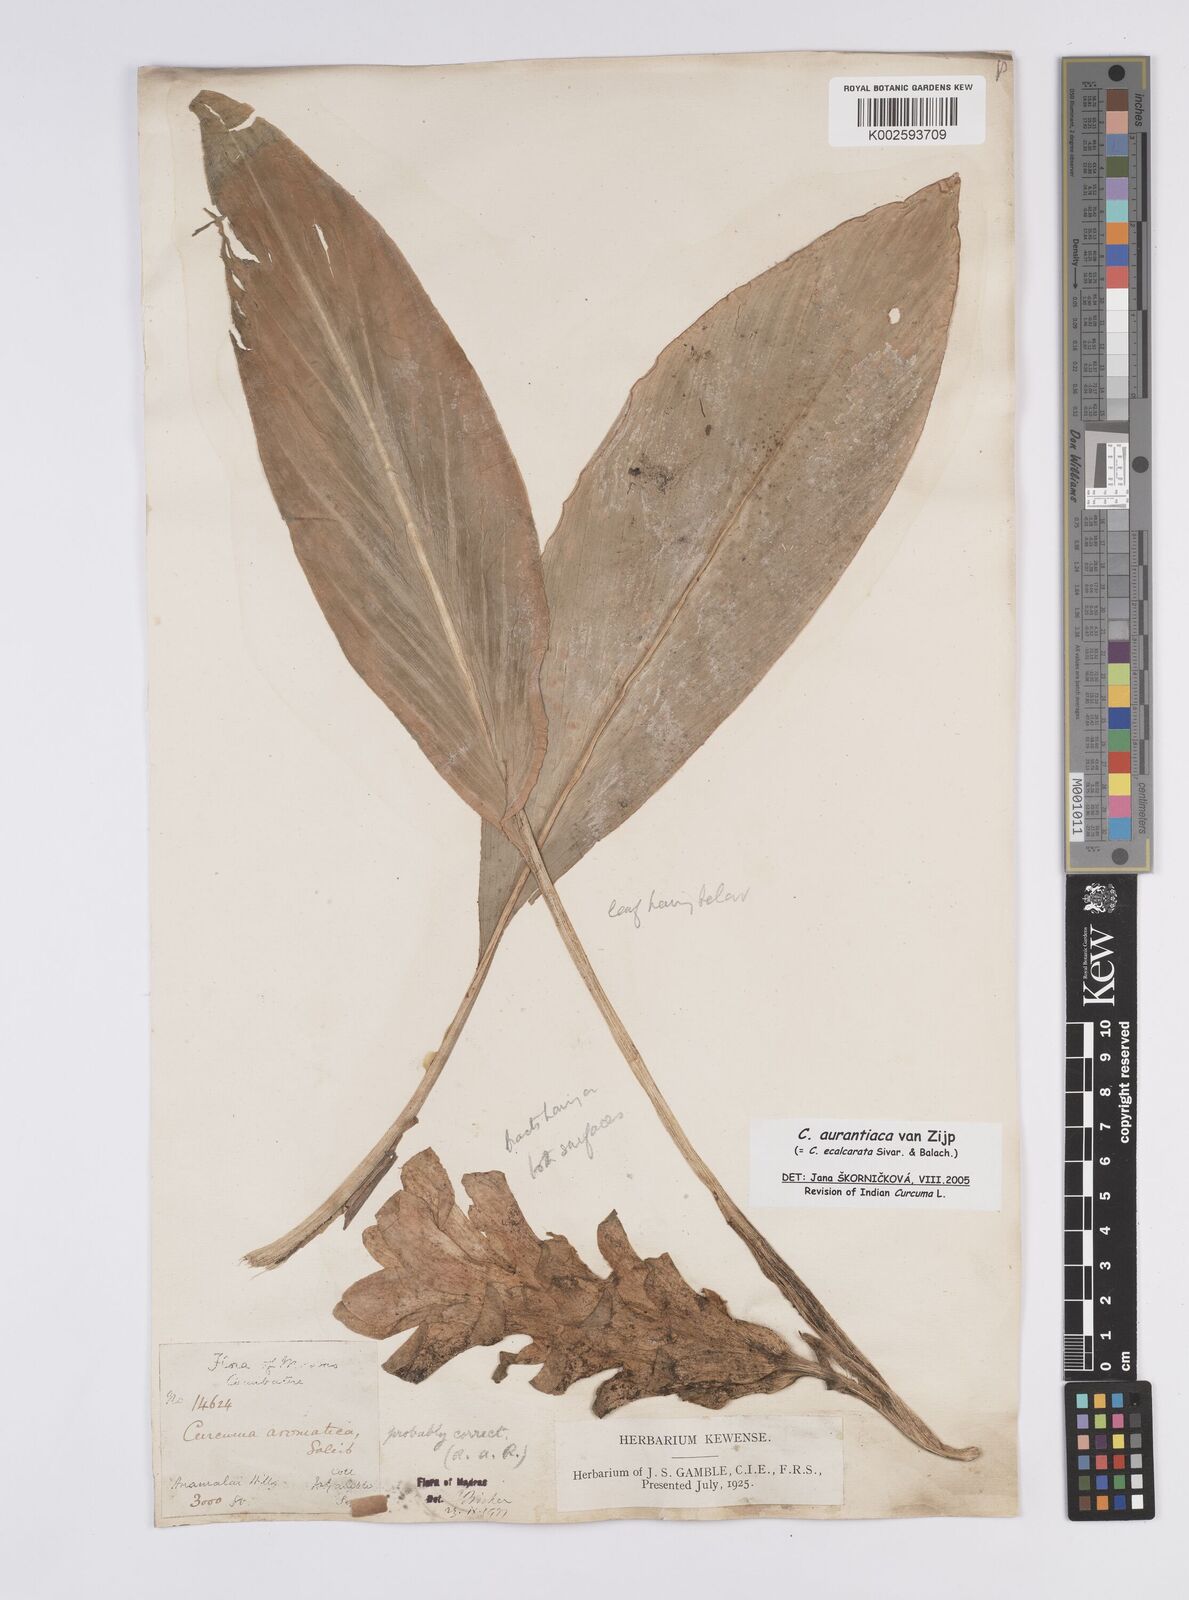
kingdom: Plantae
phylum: Tracheophyta
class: Liliopsida
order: Zingiberales
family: Zingiberaceae
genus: Curcuma
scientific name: Curcuma aurantiaca
